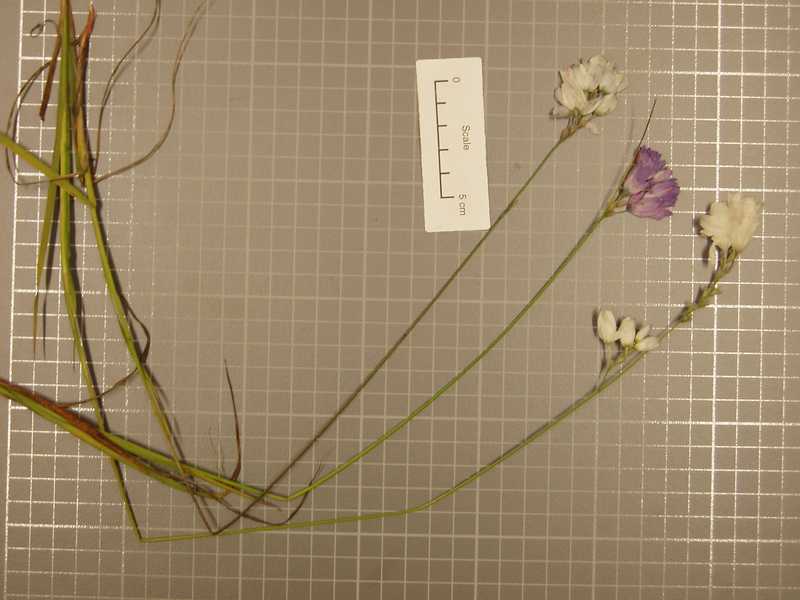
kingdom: Plantae
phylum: Tracheophyta
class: Liliopsida
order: Asparagales
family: Iridaceae
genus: Ixia
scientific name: Ixia polystachya
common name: White-and-yellow-flower cornlily
